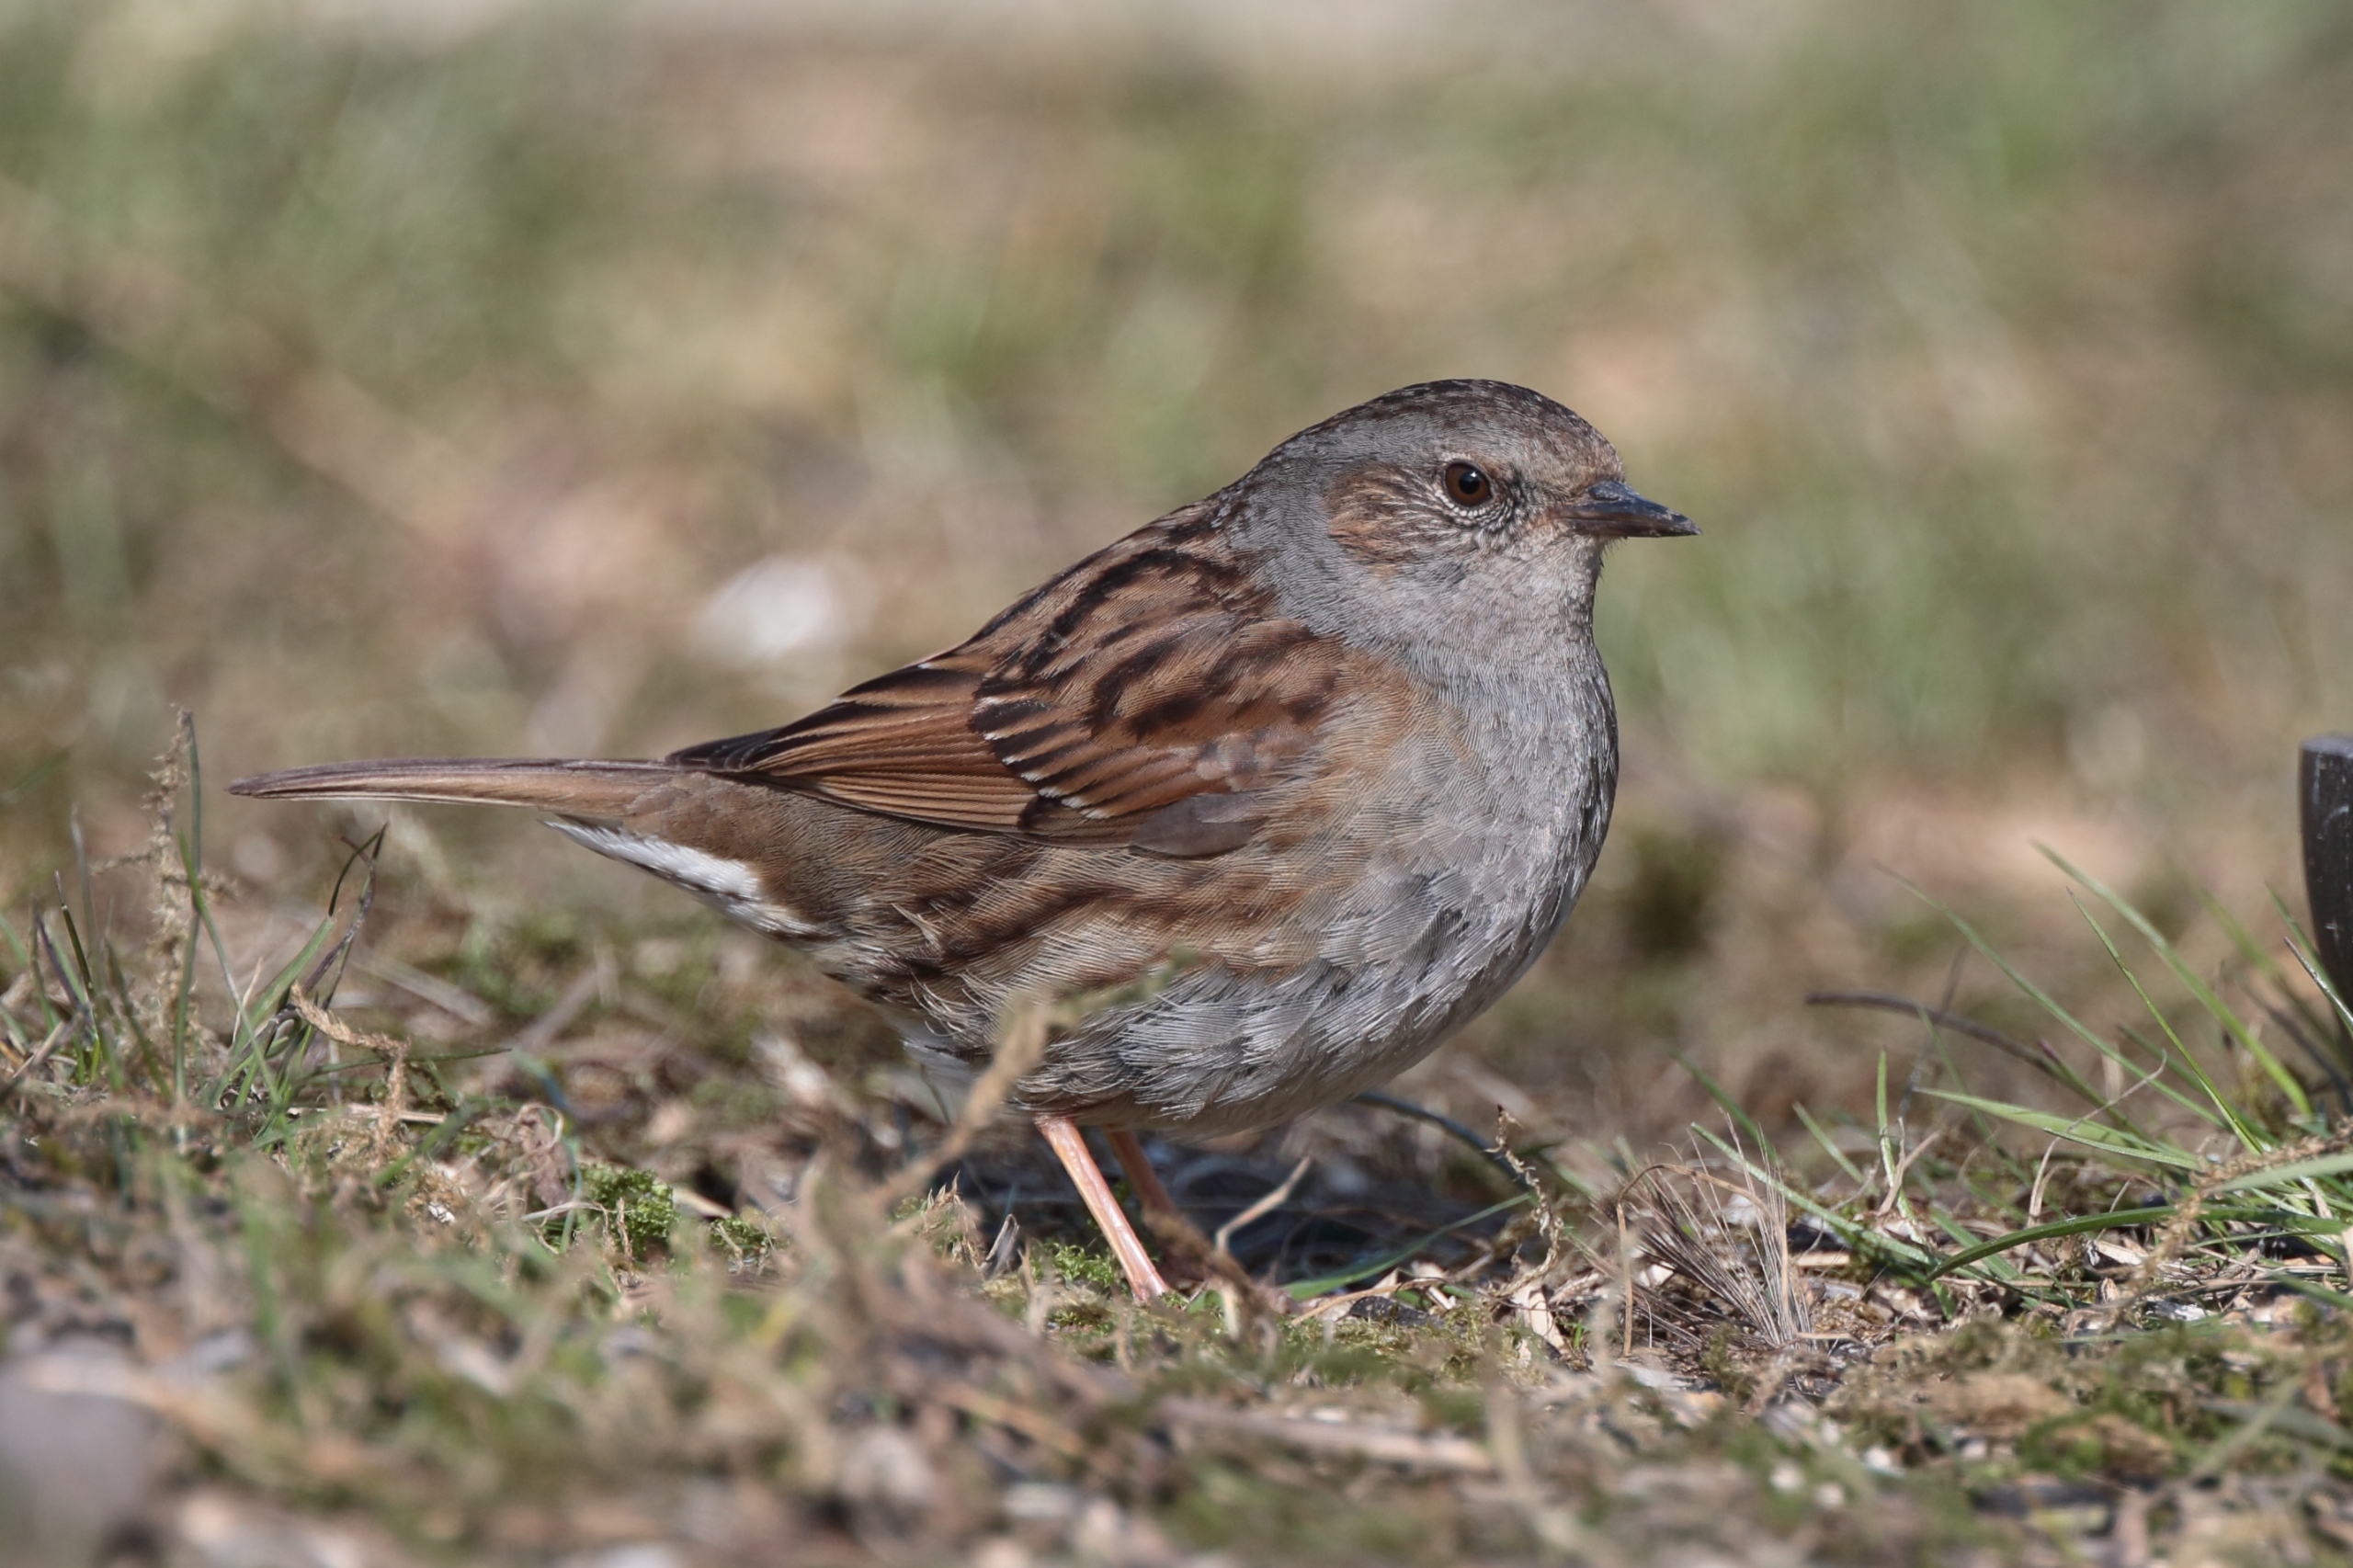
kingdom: Animalia
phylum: Chordata
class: Aves
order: Passeriformes
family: Prunellidae
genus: Prunella
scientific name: Prunella modularis
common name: Jernspurv
